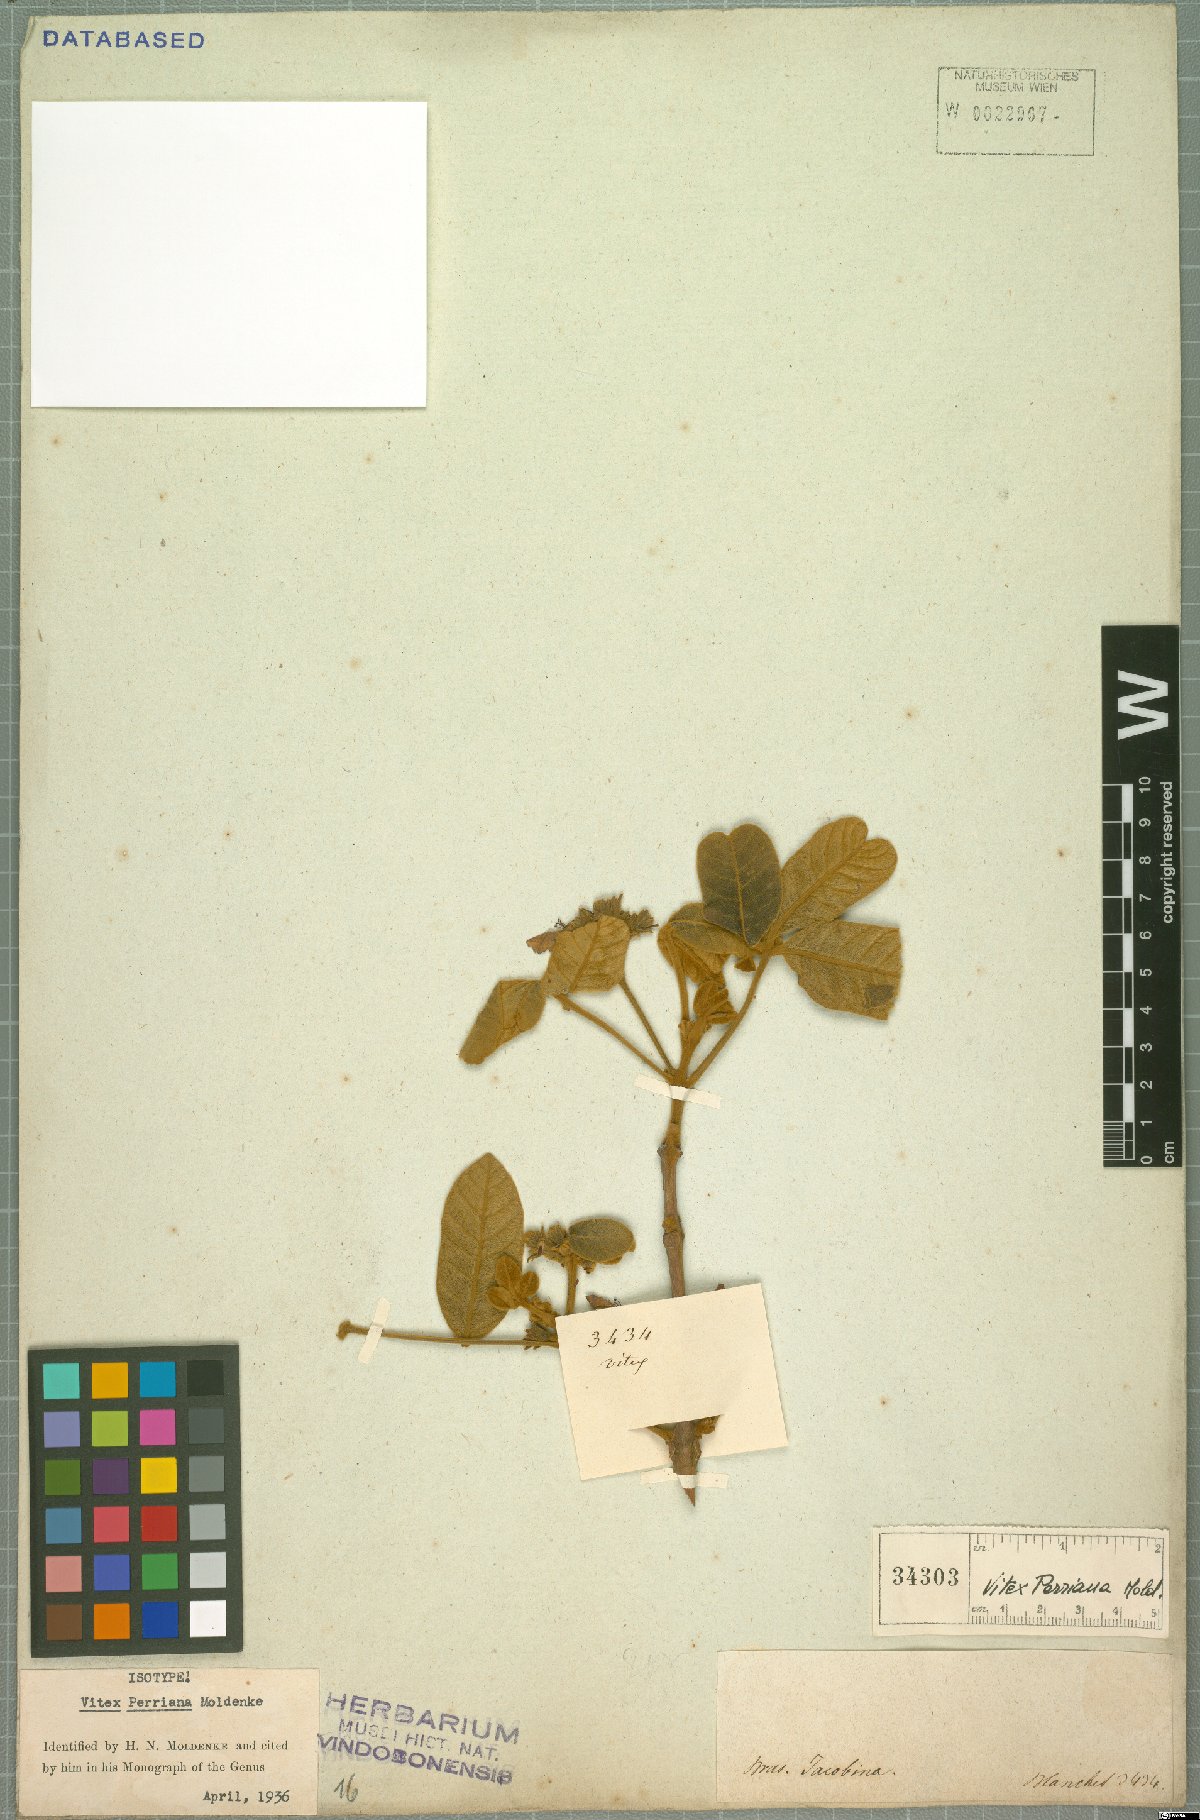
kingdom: Plantae
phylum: Tracheophyta
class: Magnoliopsida
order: Lamiales
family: Lamiaceae
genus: Vitex
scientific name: Vitex rufescens
